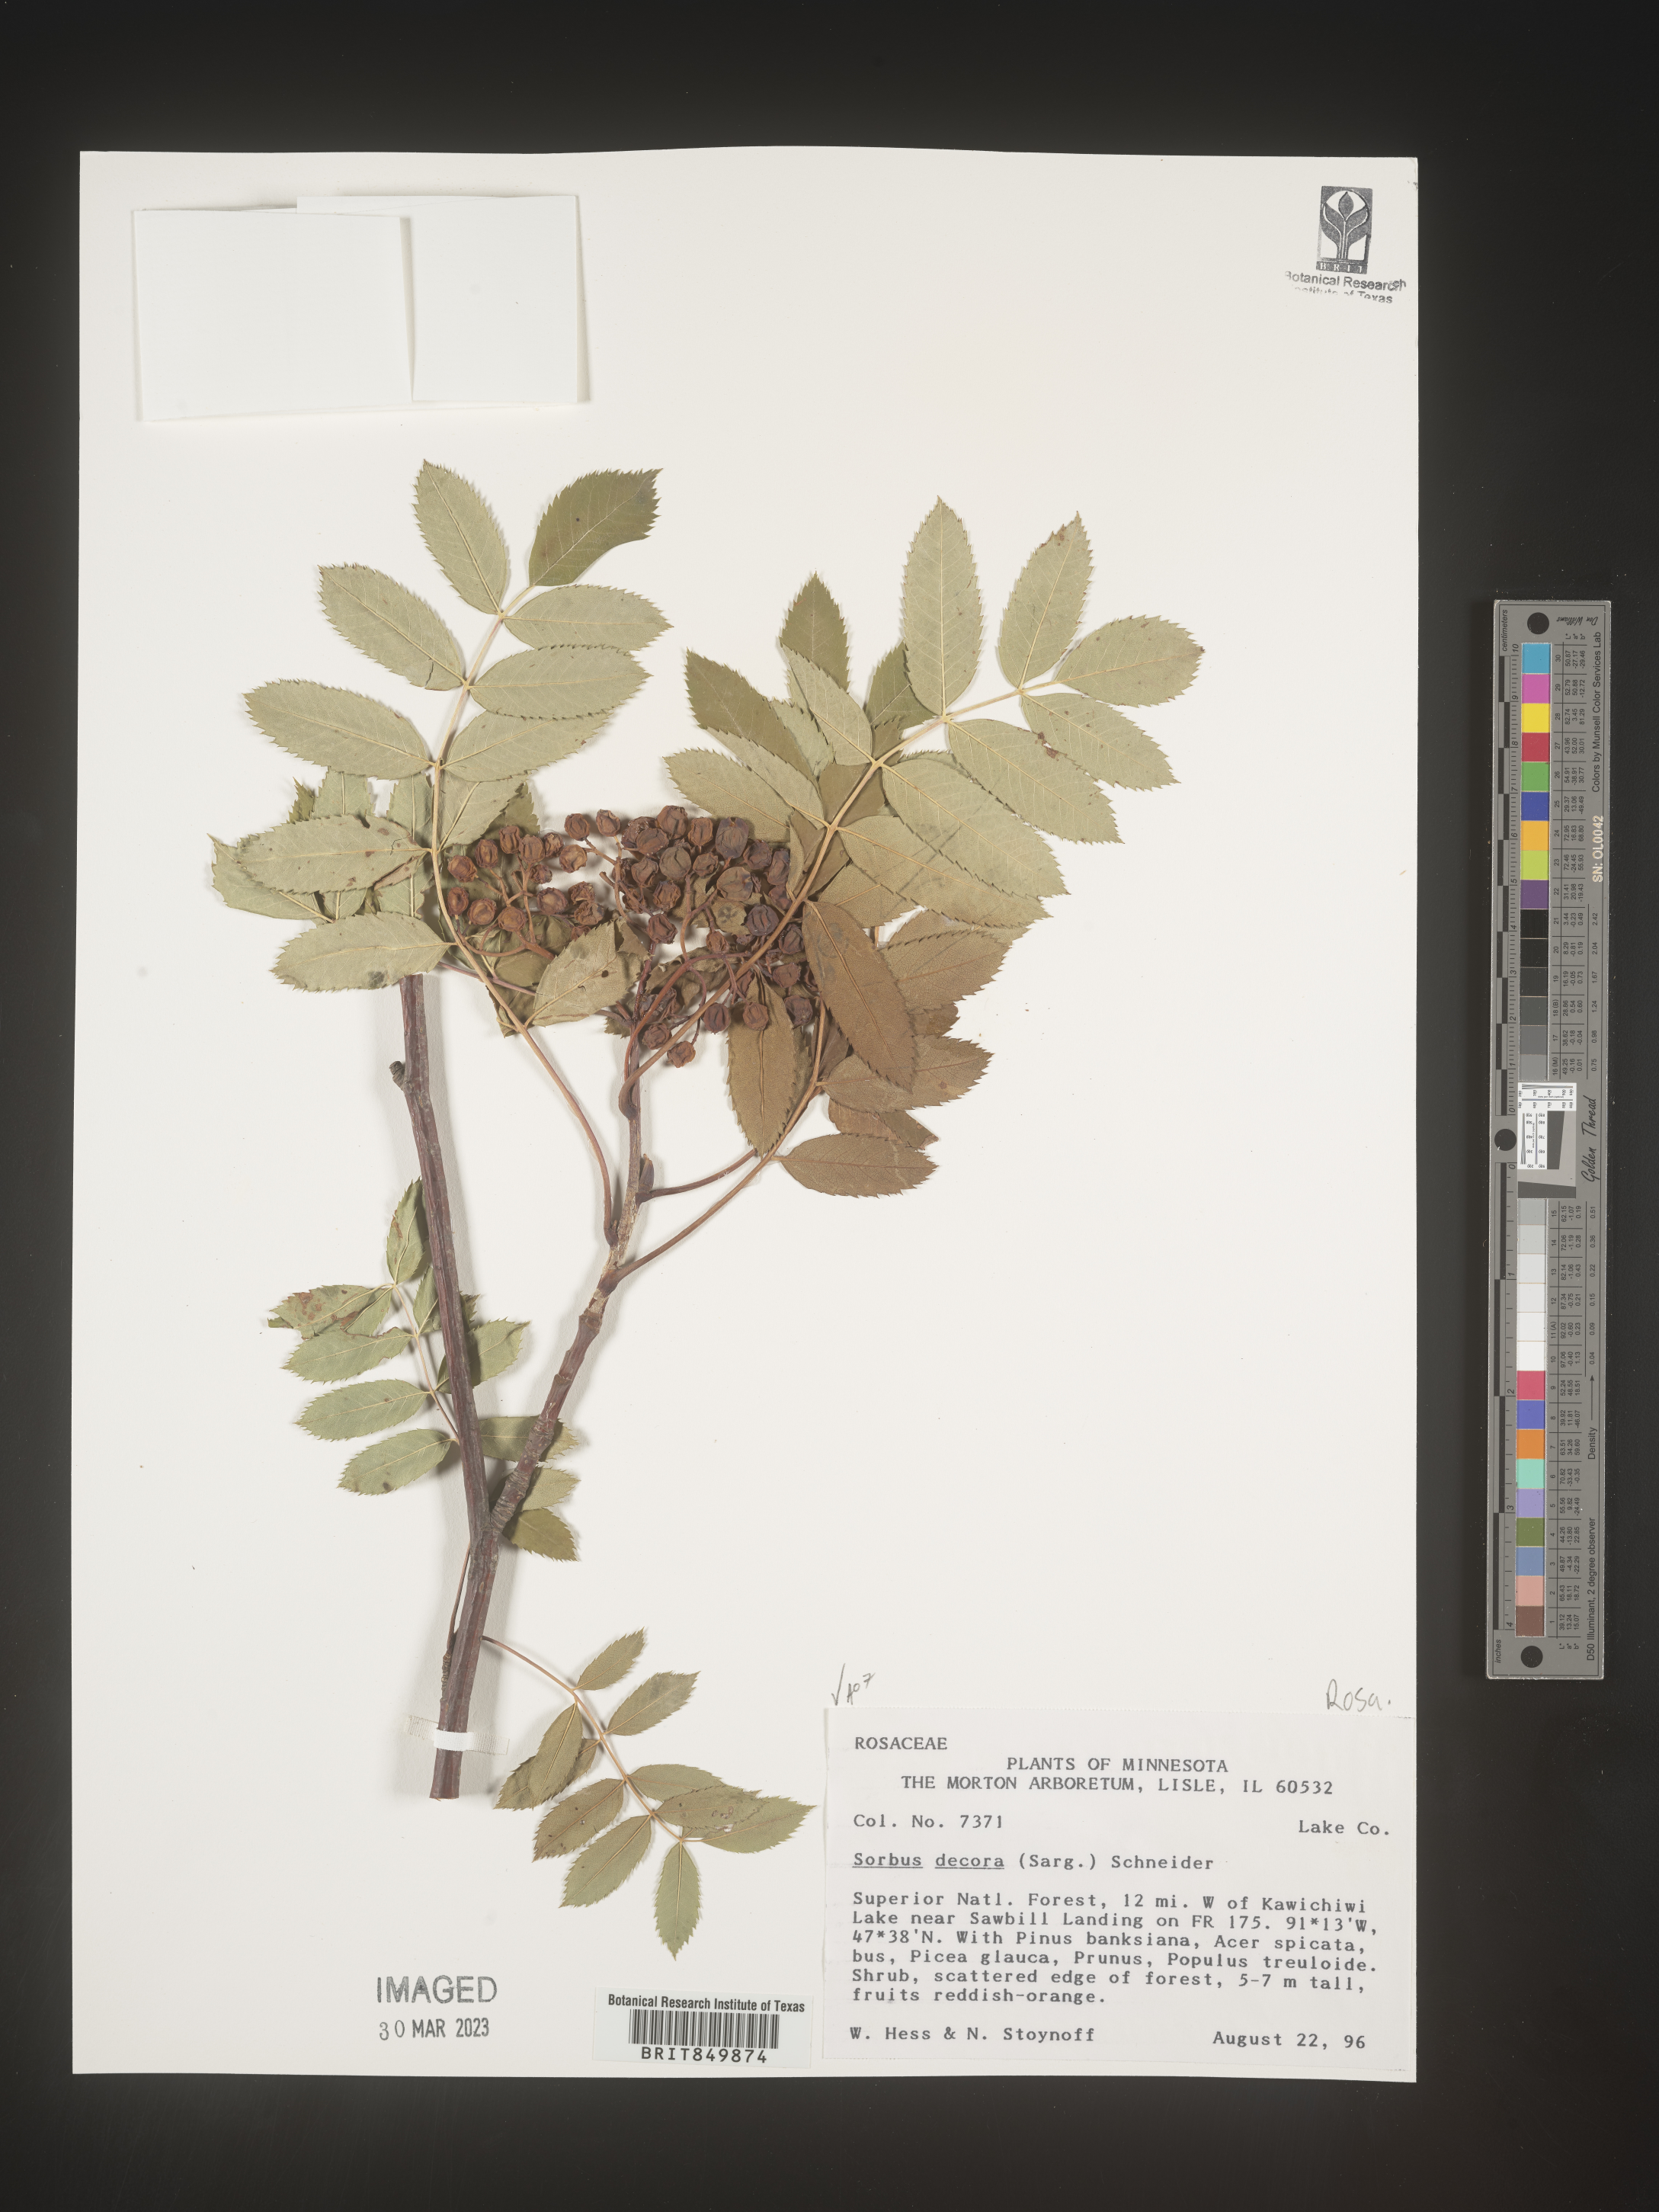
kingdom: Plantae
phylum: Tracheophyta
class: Magnoliopsida
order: Rosales
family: Rosaceae
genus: Sorbus
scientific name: Sorbus
